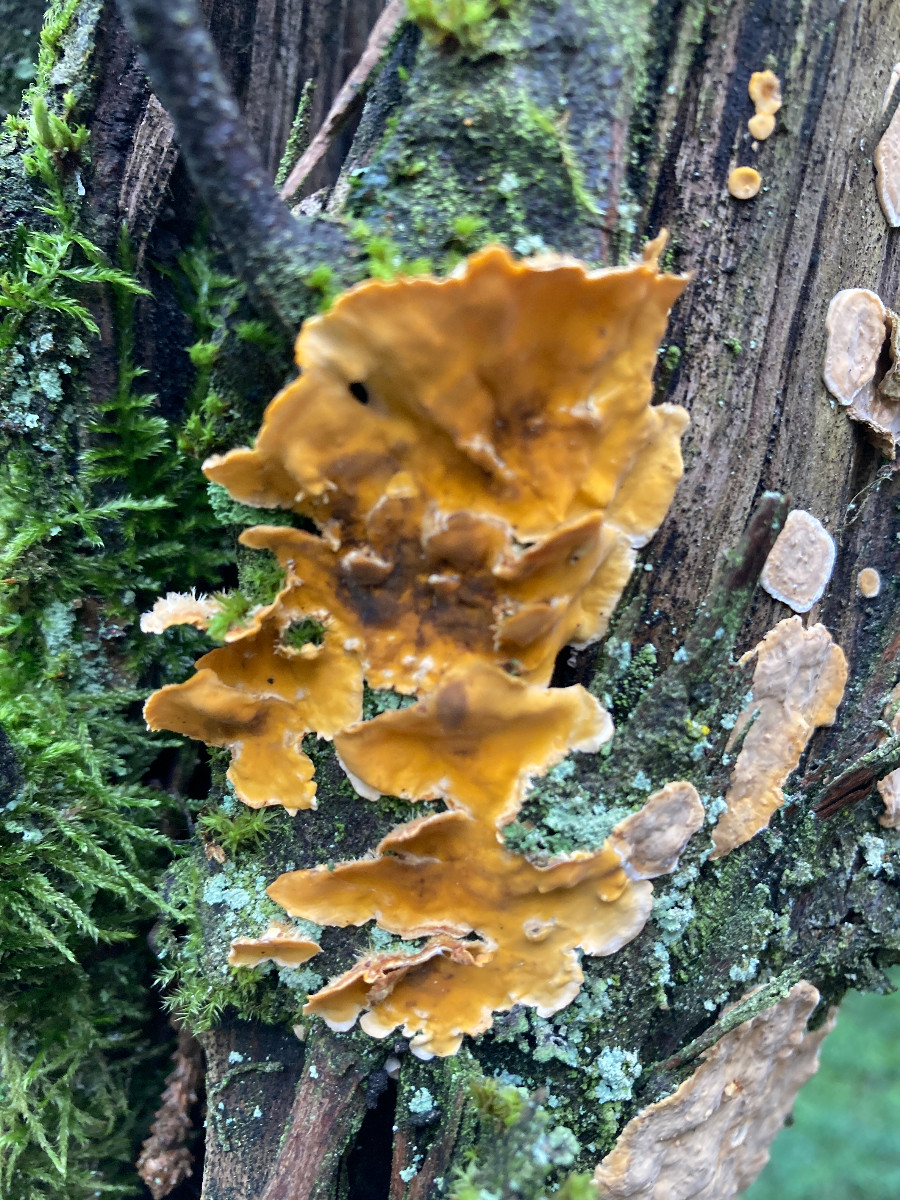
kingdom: Fungi
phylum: Basidiomycota
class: Agaricomycetes
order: Russulales
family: Stereaceae
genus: Stereum
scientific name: Stereum hirsutum
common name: håret lædersvamp
